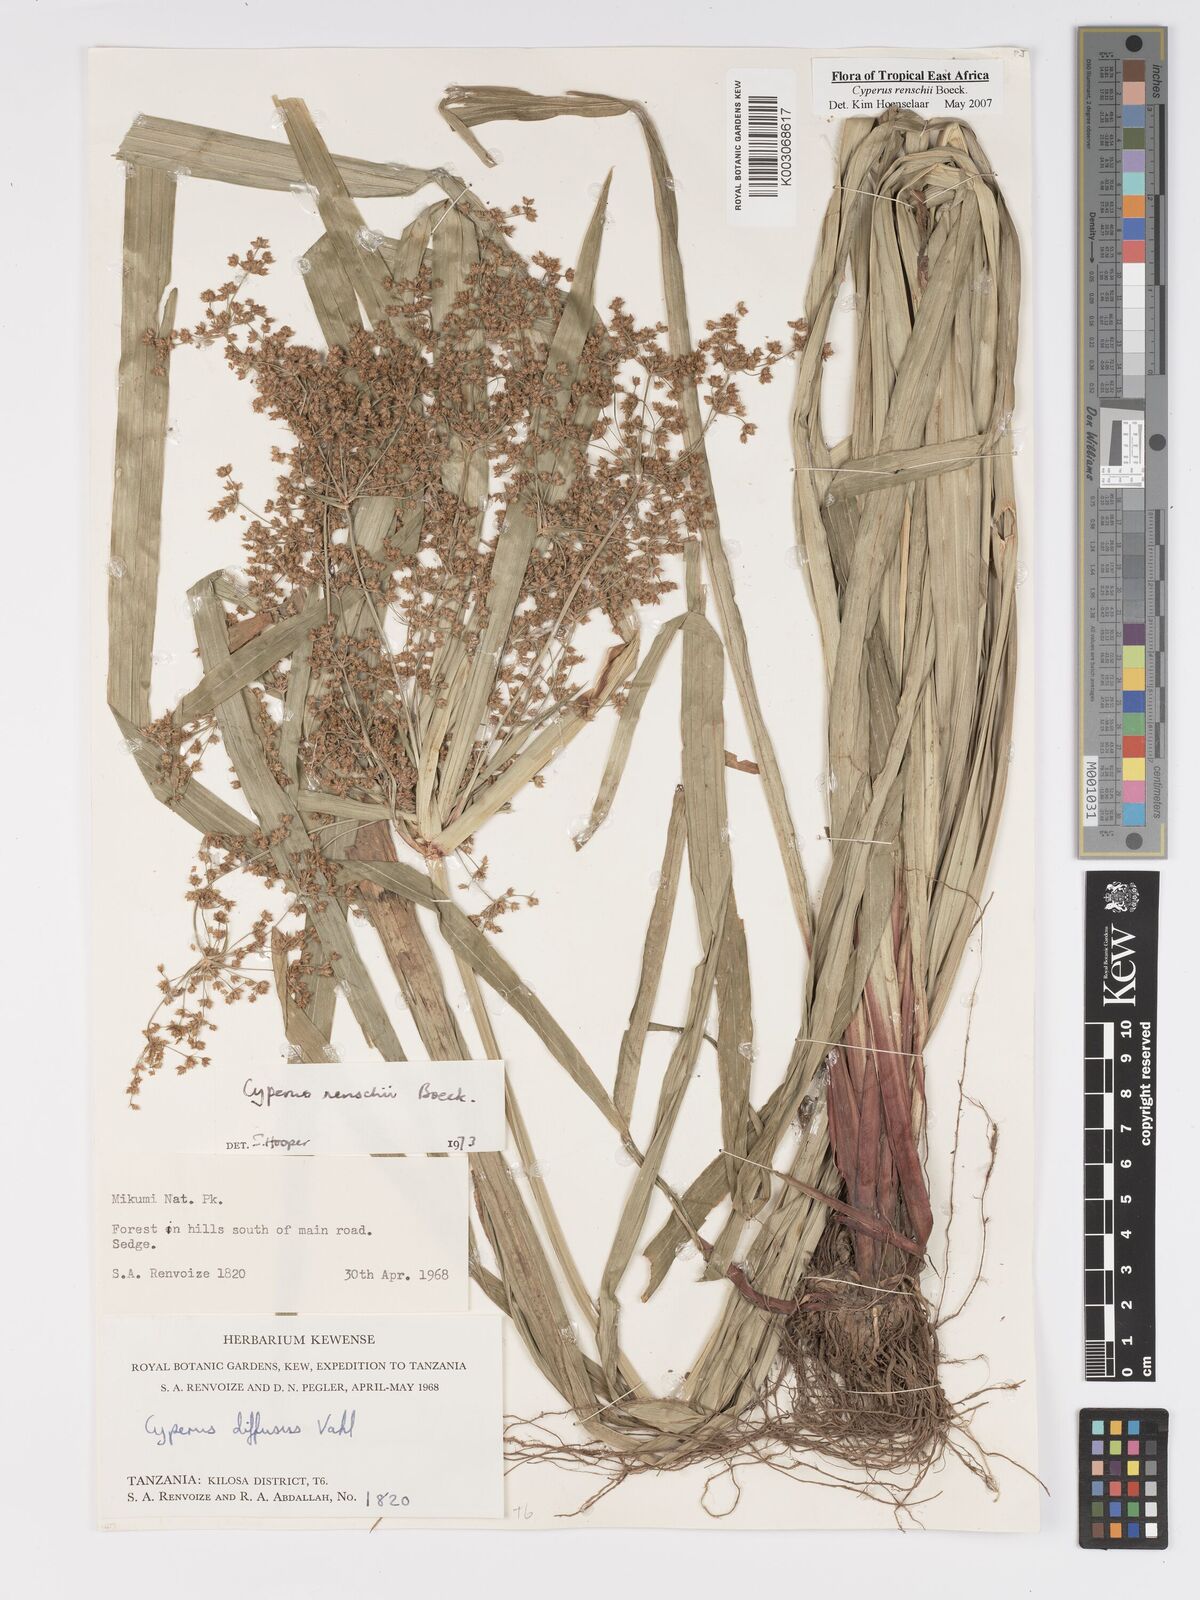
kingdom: Plantae
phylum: Tracheophyta
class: Liliopsida
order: Poales
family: Cyperaceae
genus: Cyperus
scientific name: Cyperus renschii
